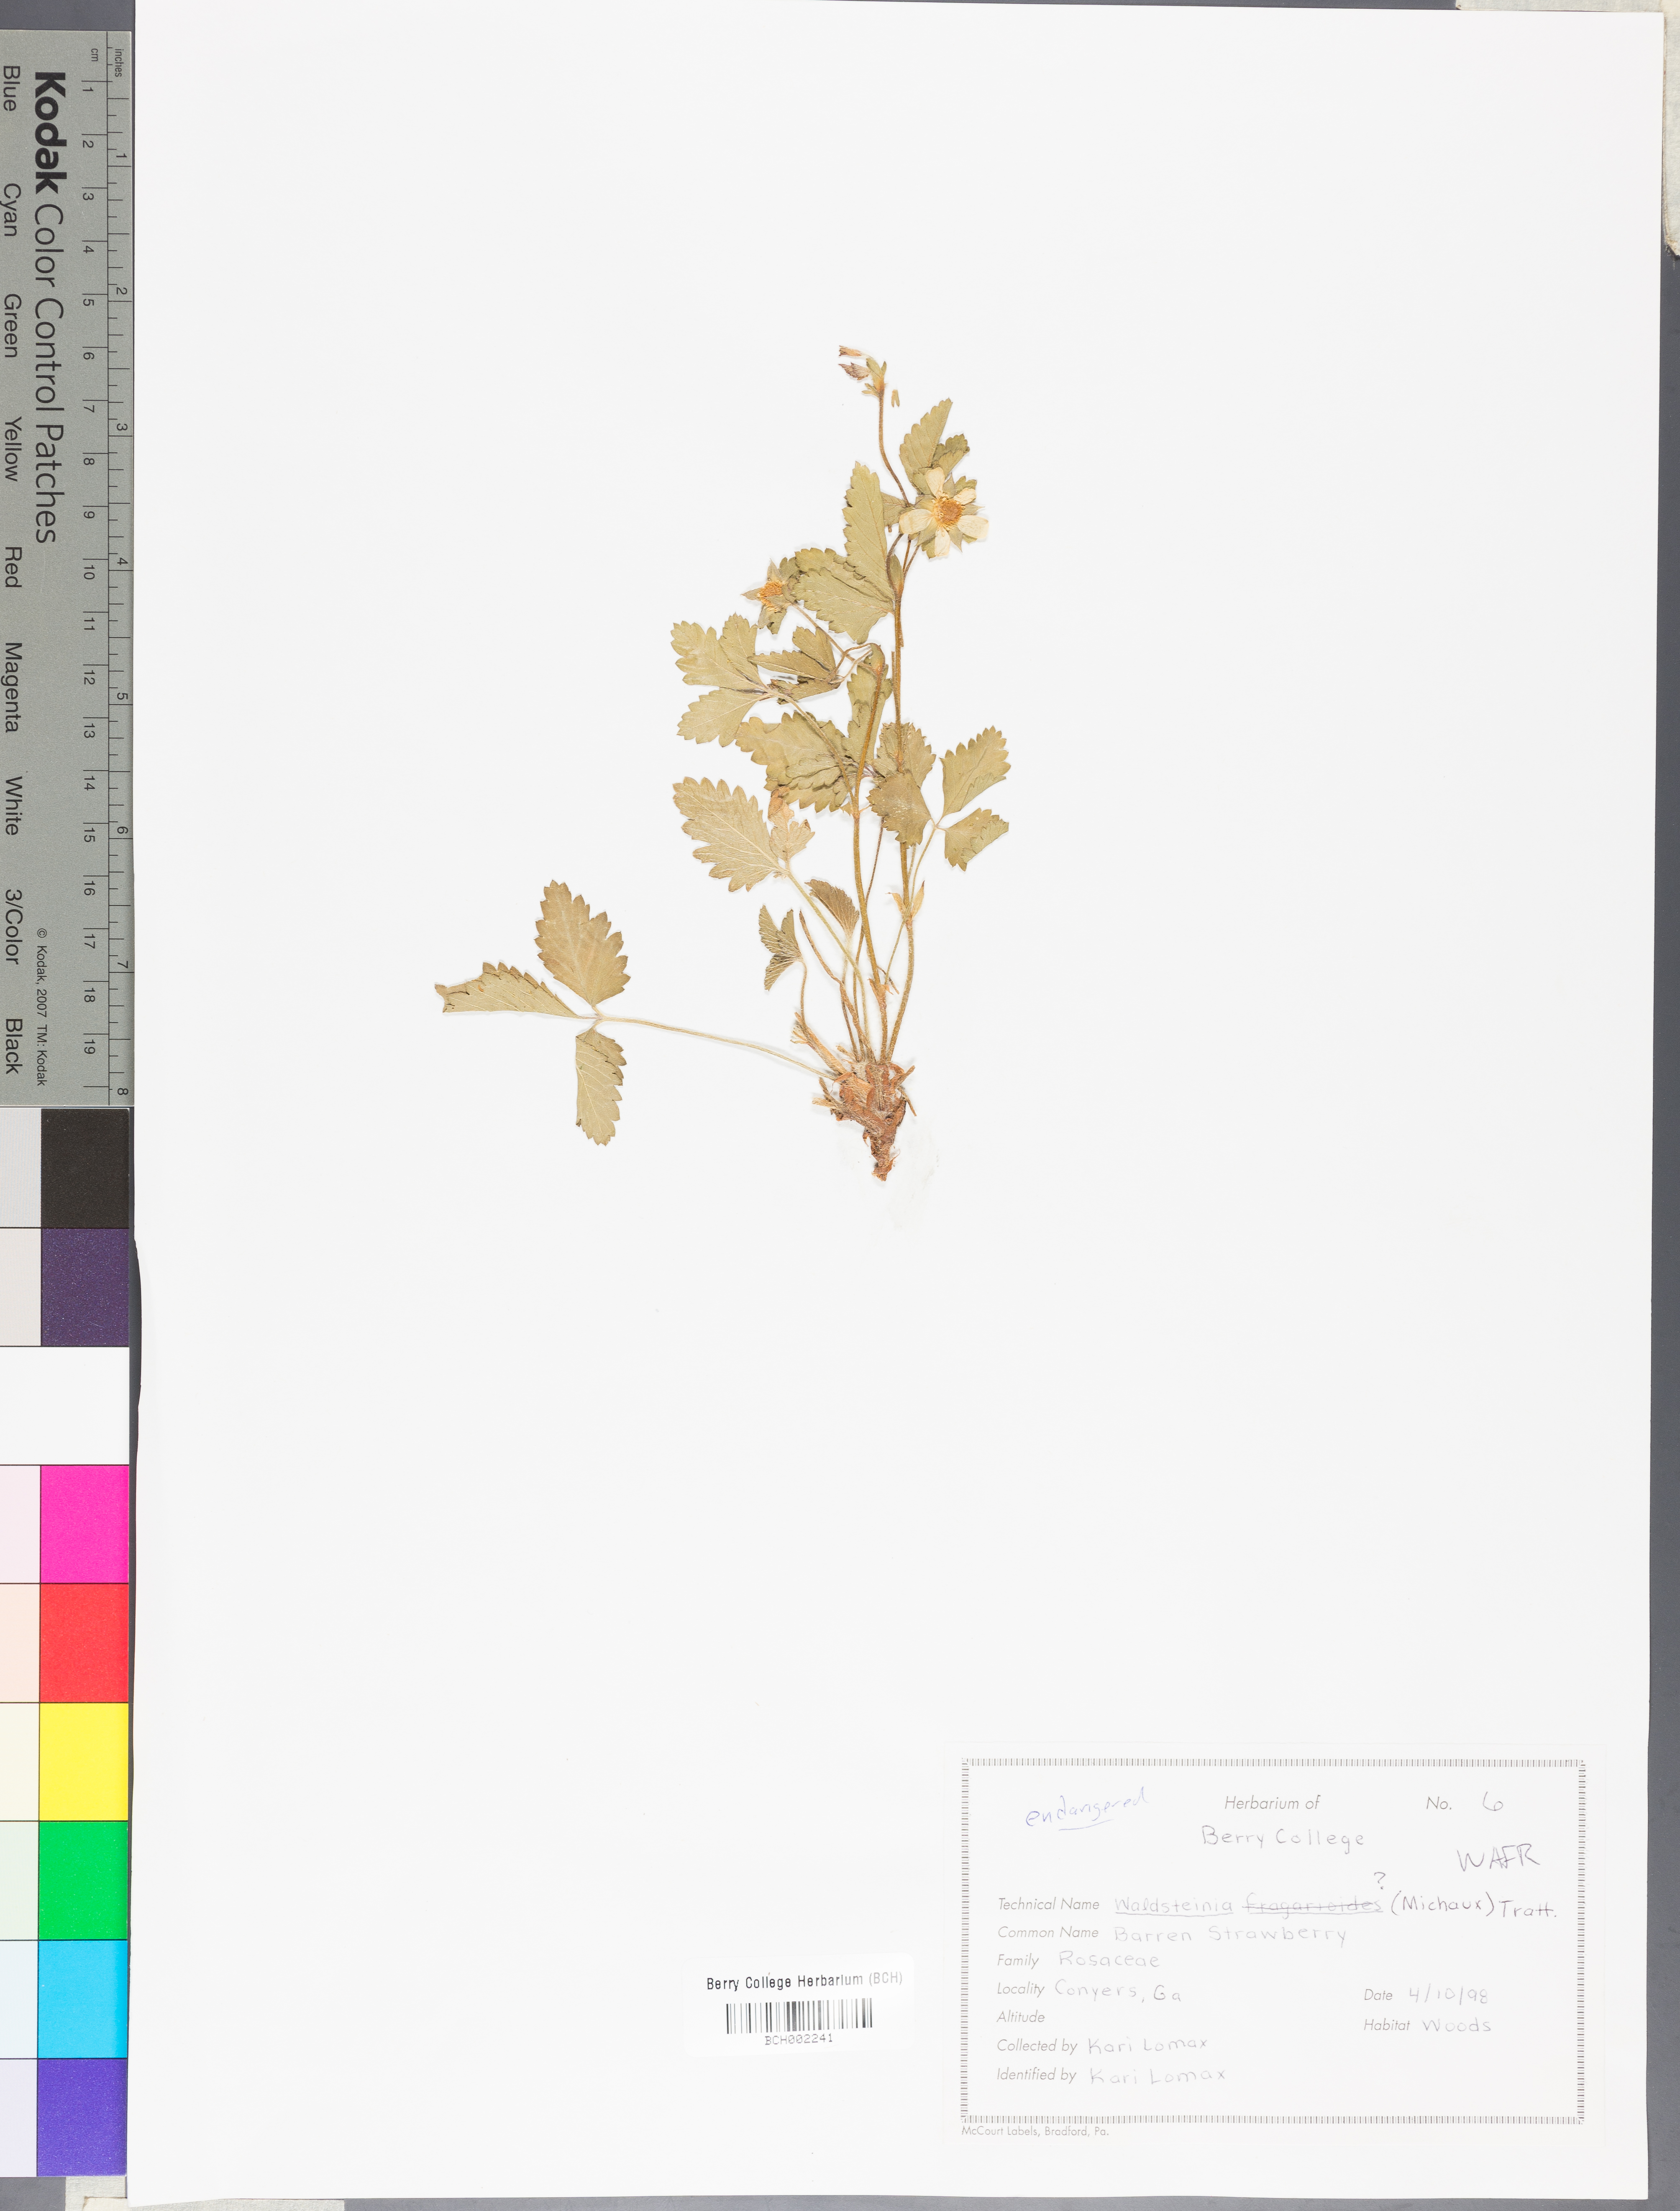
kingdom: Plantae
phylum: Tracheophyta
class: Magnoliopsida
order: Rosales
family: Rosaceae
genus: Geum
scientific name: Geum fragarioides
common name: Appalachian barren strawberry
